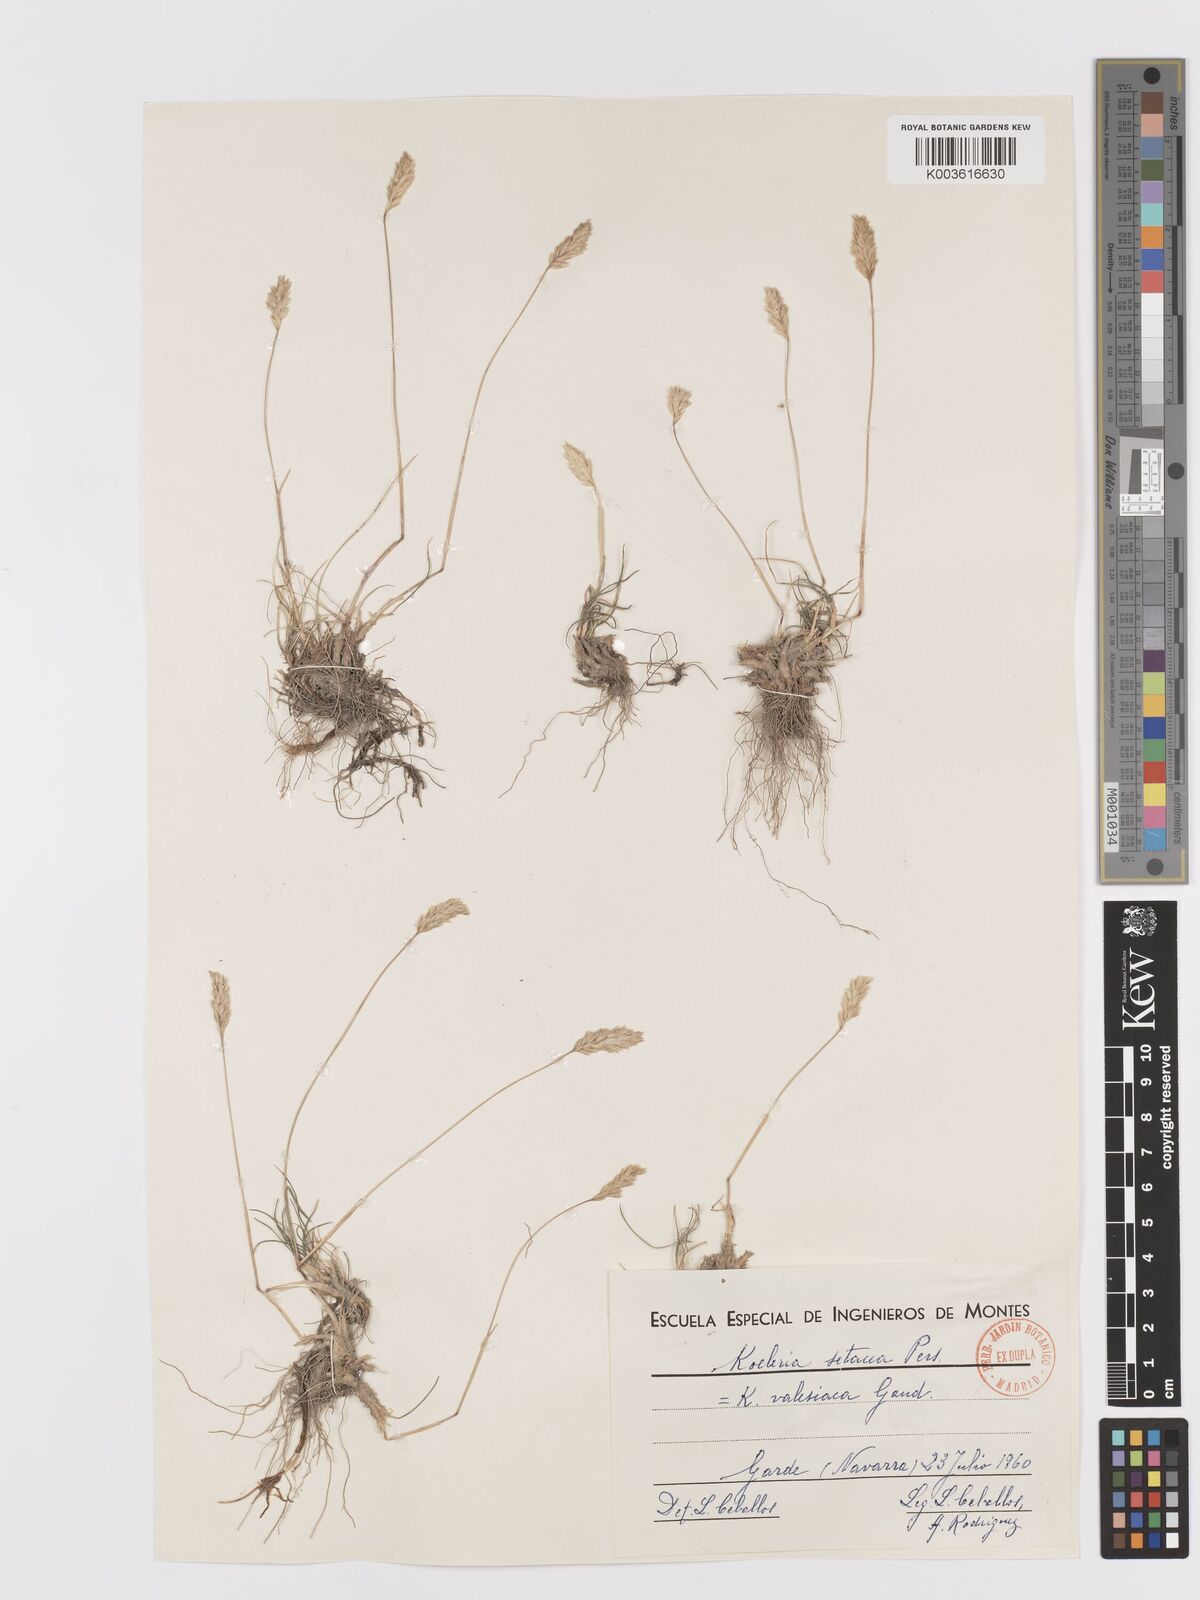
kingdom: Plantae
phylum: Tracheophyta
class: Liliopsida
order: Poales
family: Poaceae
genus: Koeleria
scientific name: Koeleria vallesiana
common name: Somerset hair-grass
